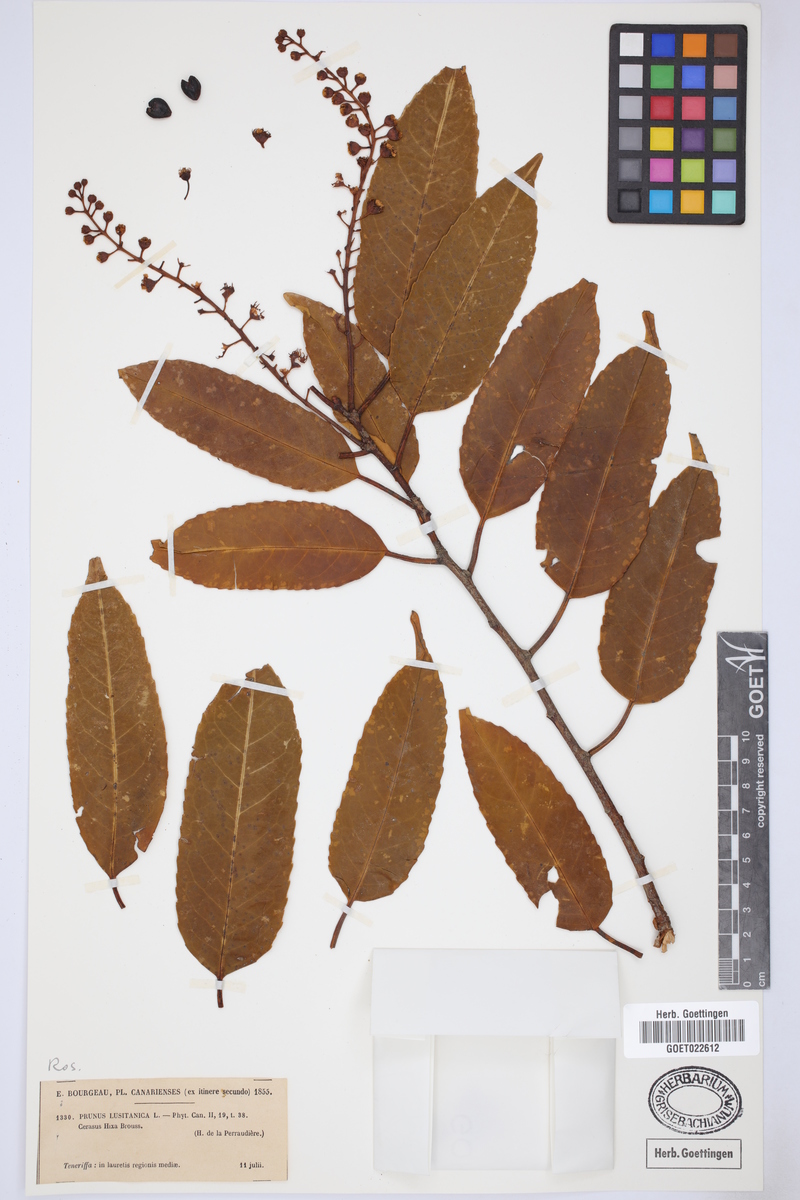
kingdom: Plantae
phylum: Tracheophyta
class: Magnoliopsida
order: Rosales
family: Rosaceae
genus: Prunus
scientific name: Prunus lusitanica
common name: Portugal laurel
